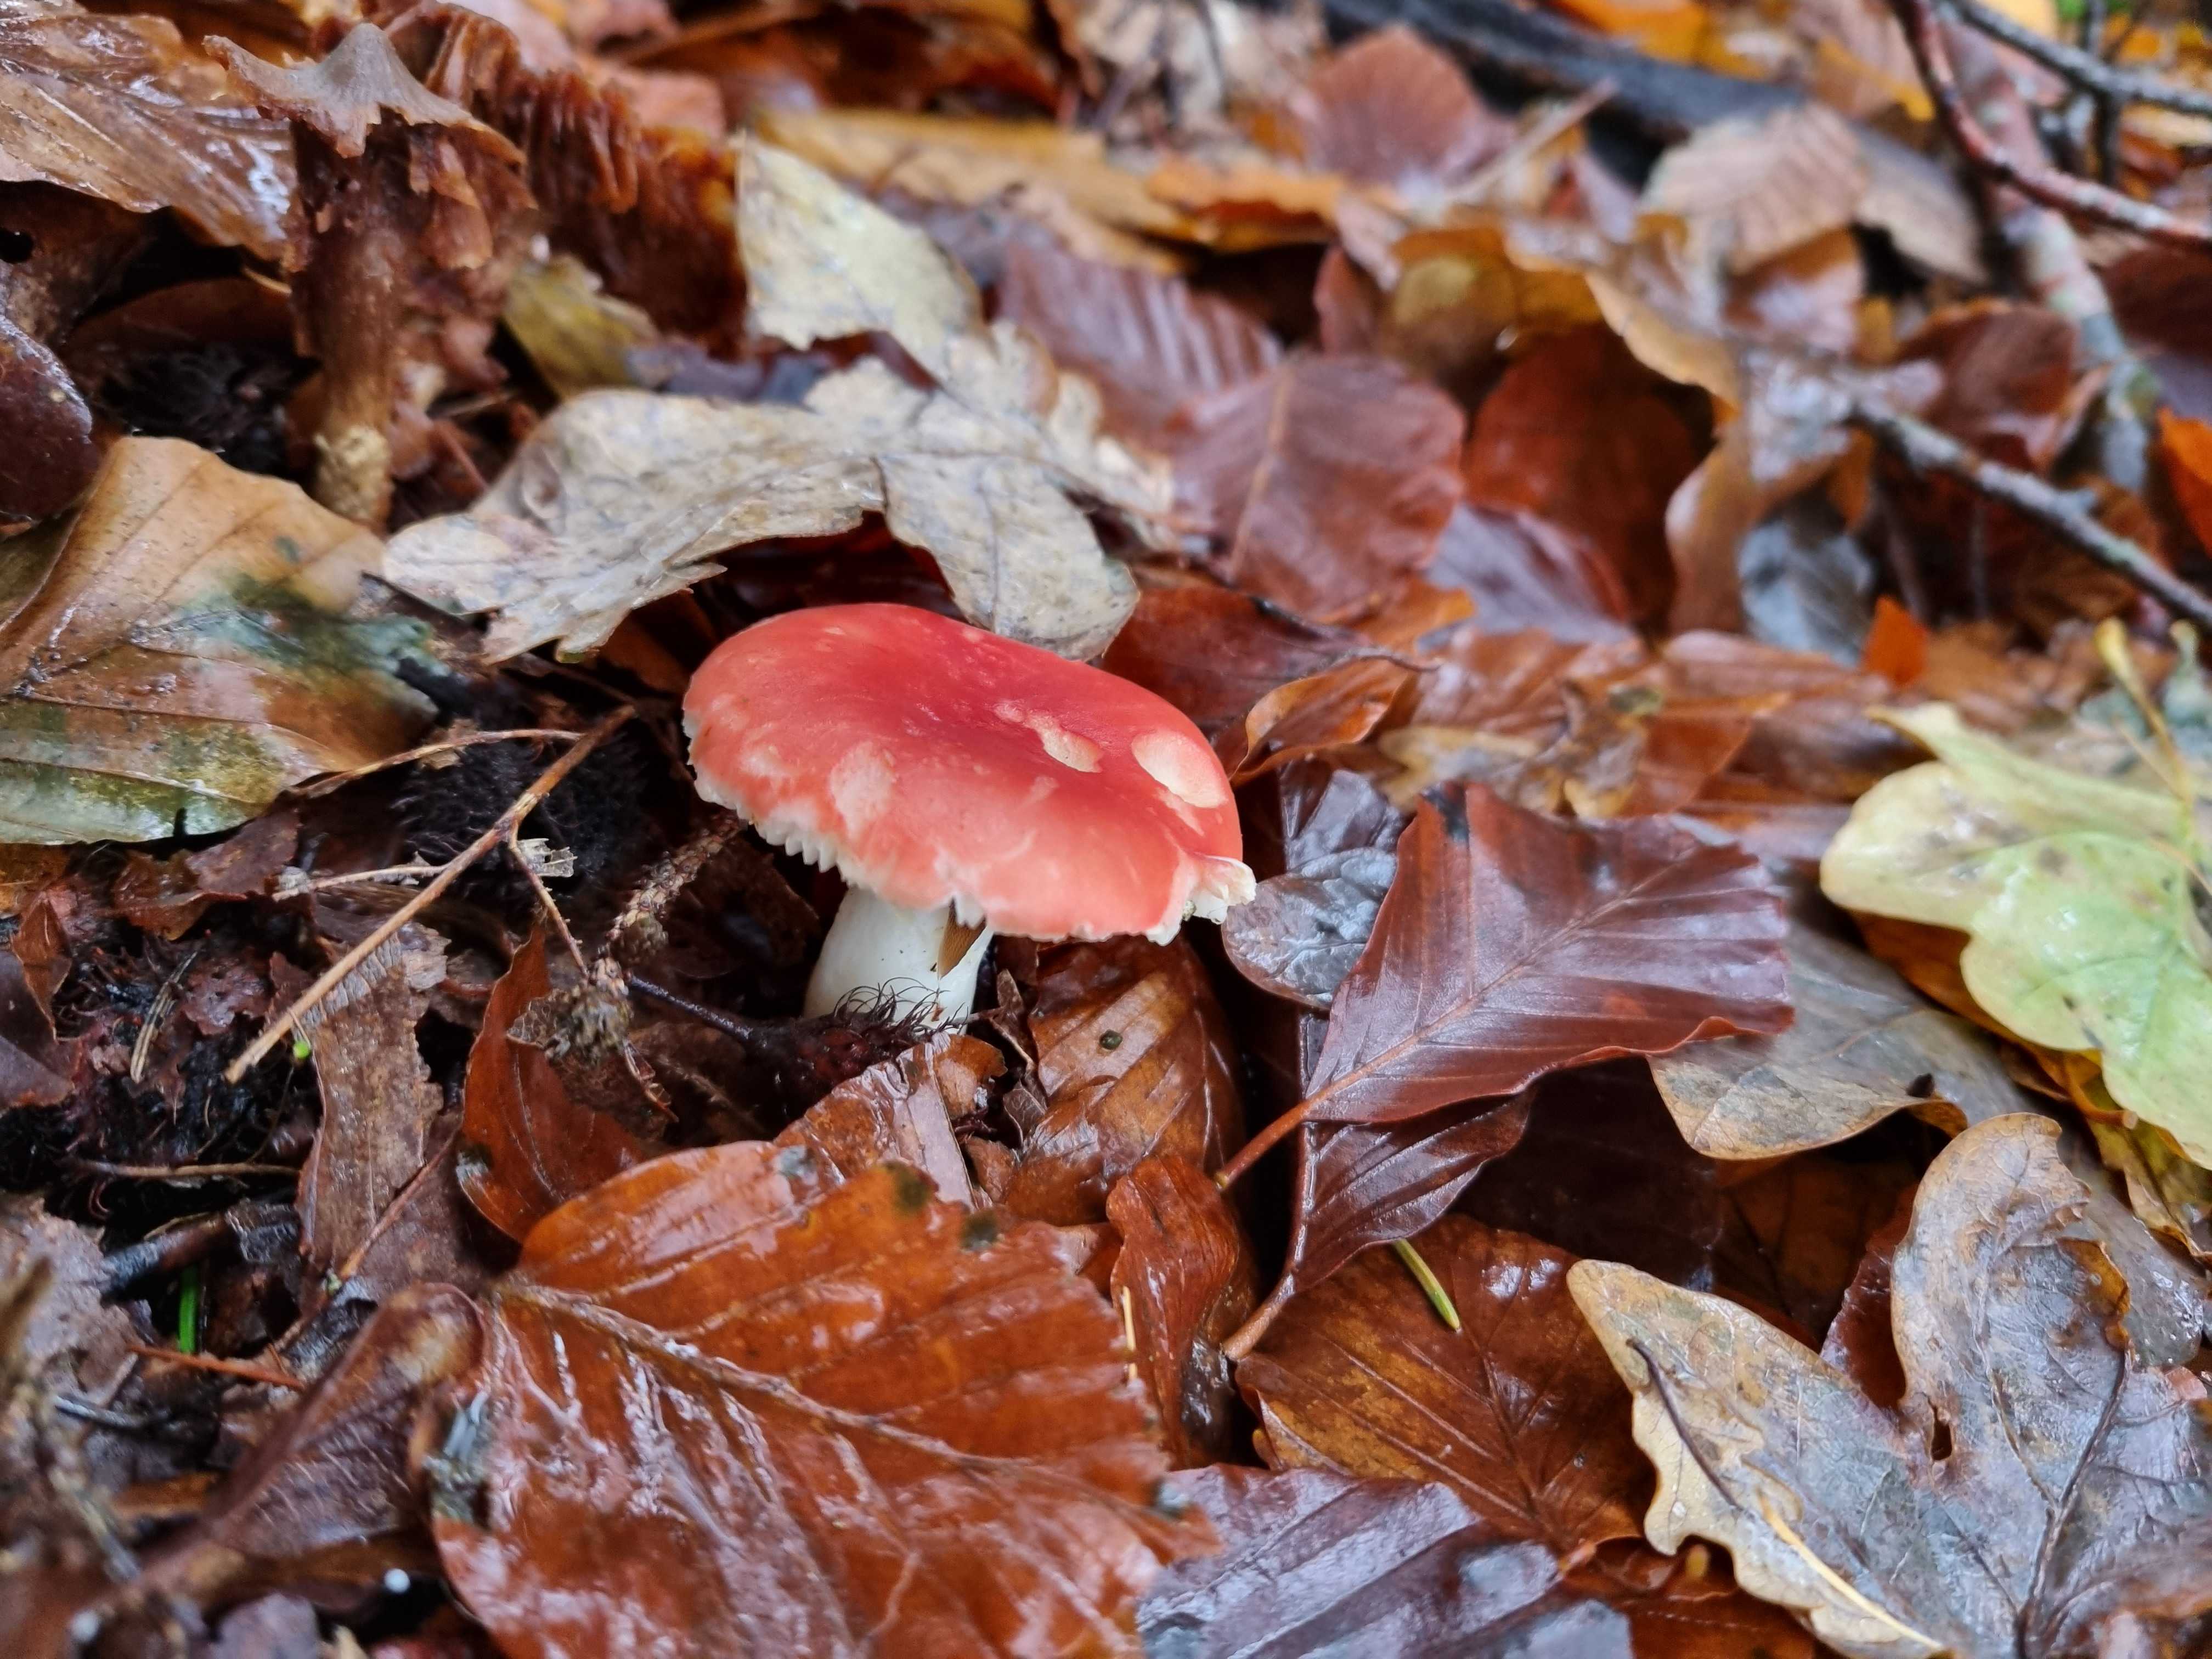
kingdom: Fungi
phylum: Basidiomycota
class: Agaricomycetes
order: Russulales
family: Russulaceae
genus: Russula
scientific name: Russula
